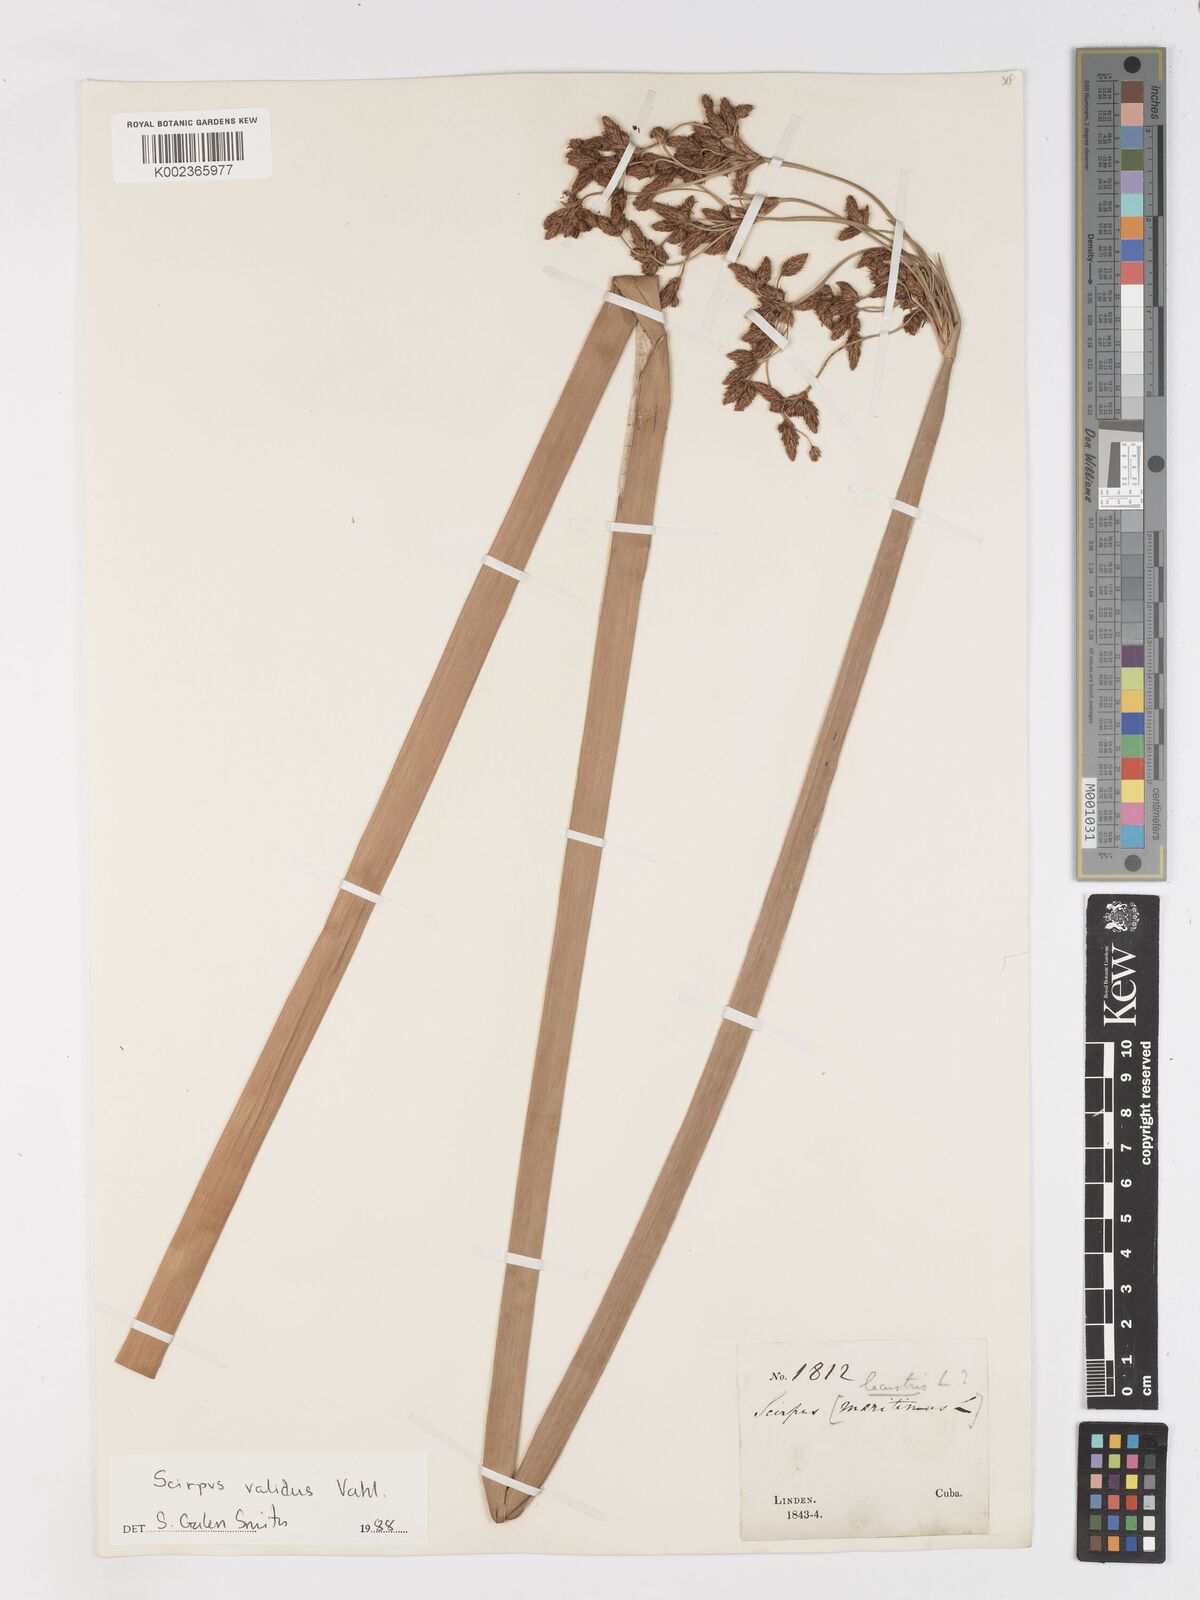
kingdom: Plantae
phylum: Tracheophyta
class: Liliopsida
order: Poales
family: Cyperaceae
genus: Schoenoplectus
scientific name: Schoenoplectus lacustris
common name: Common club-rush
